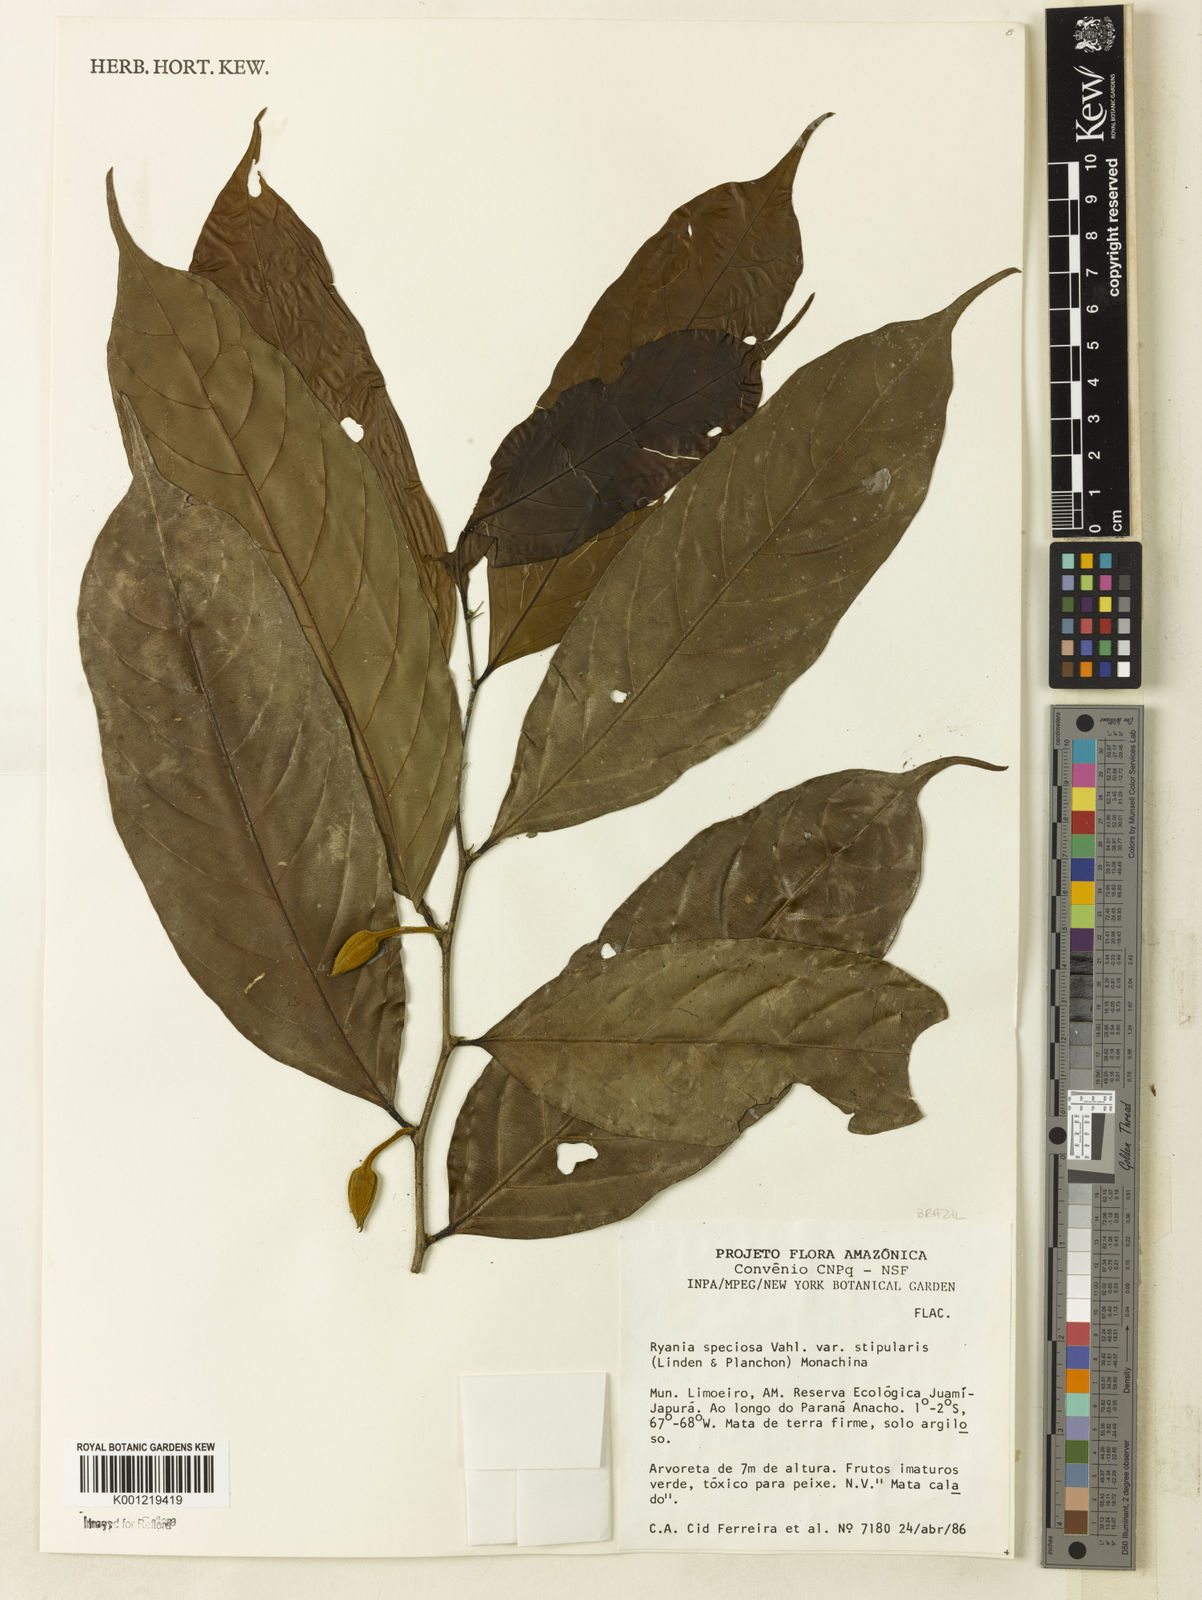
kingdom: Plantae
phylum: Tracheophyta
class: Magnoliopsida
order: Malpighiales
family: Salicaceae
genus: Ryania
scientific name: Ryania speciosa
